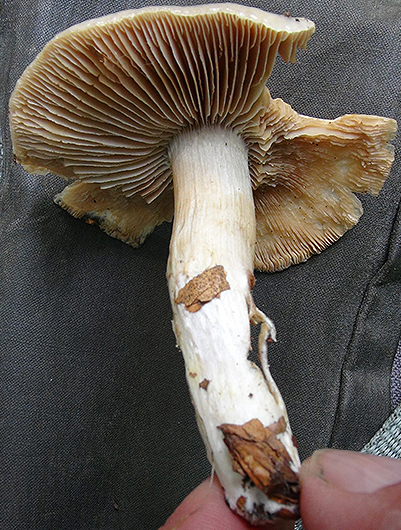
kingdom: Fungi
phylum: Basidiomycota
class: Agaricomycetes
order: Agaricales
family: Cortinariaceae
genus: Cortinarius
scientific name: Cortinarius
